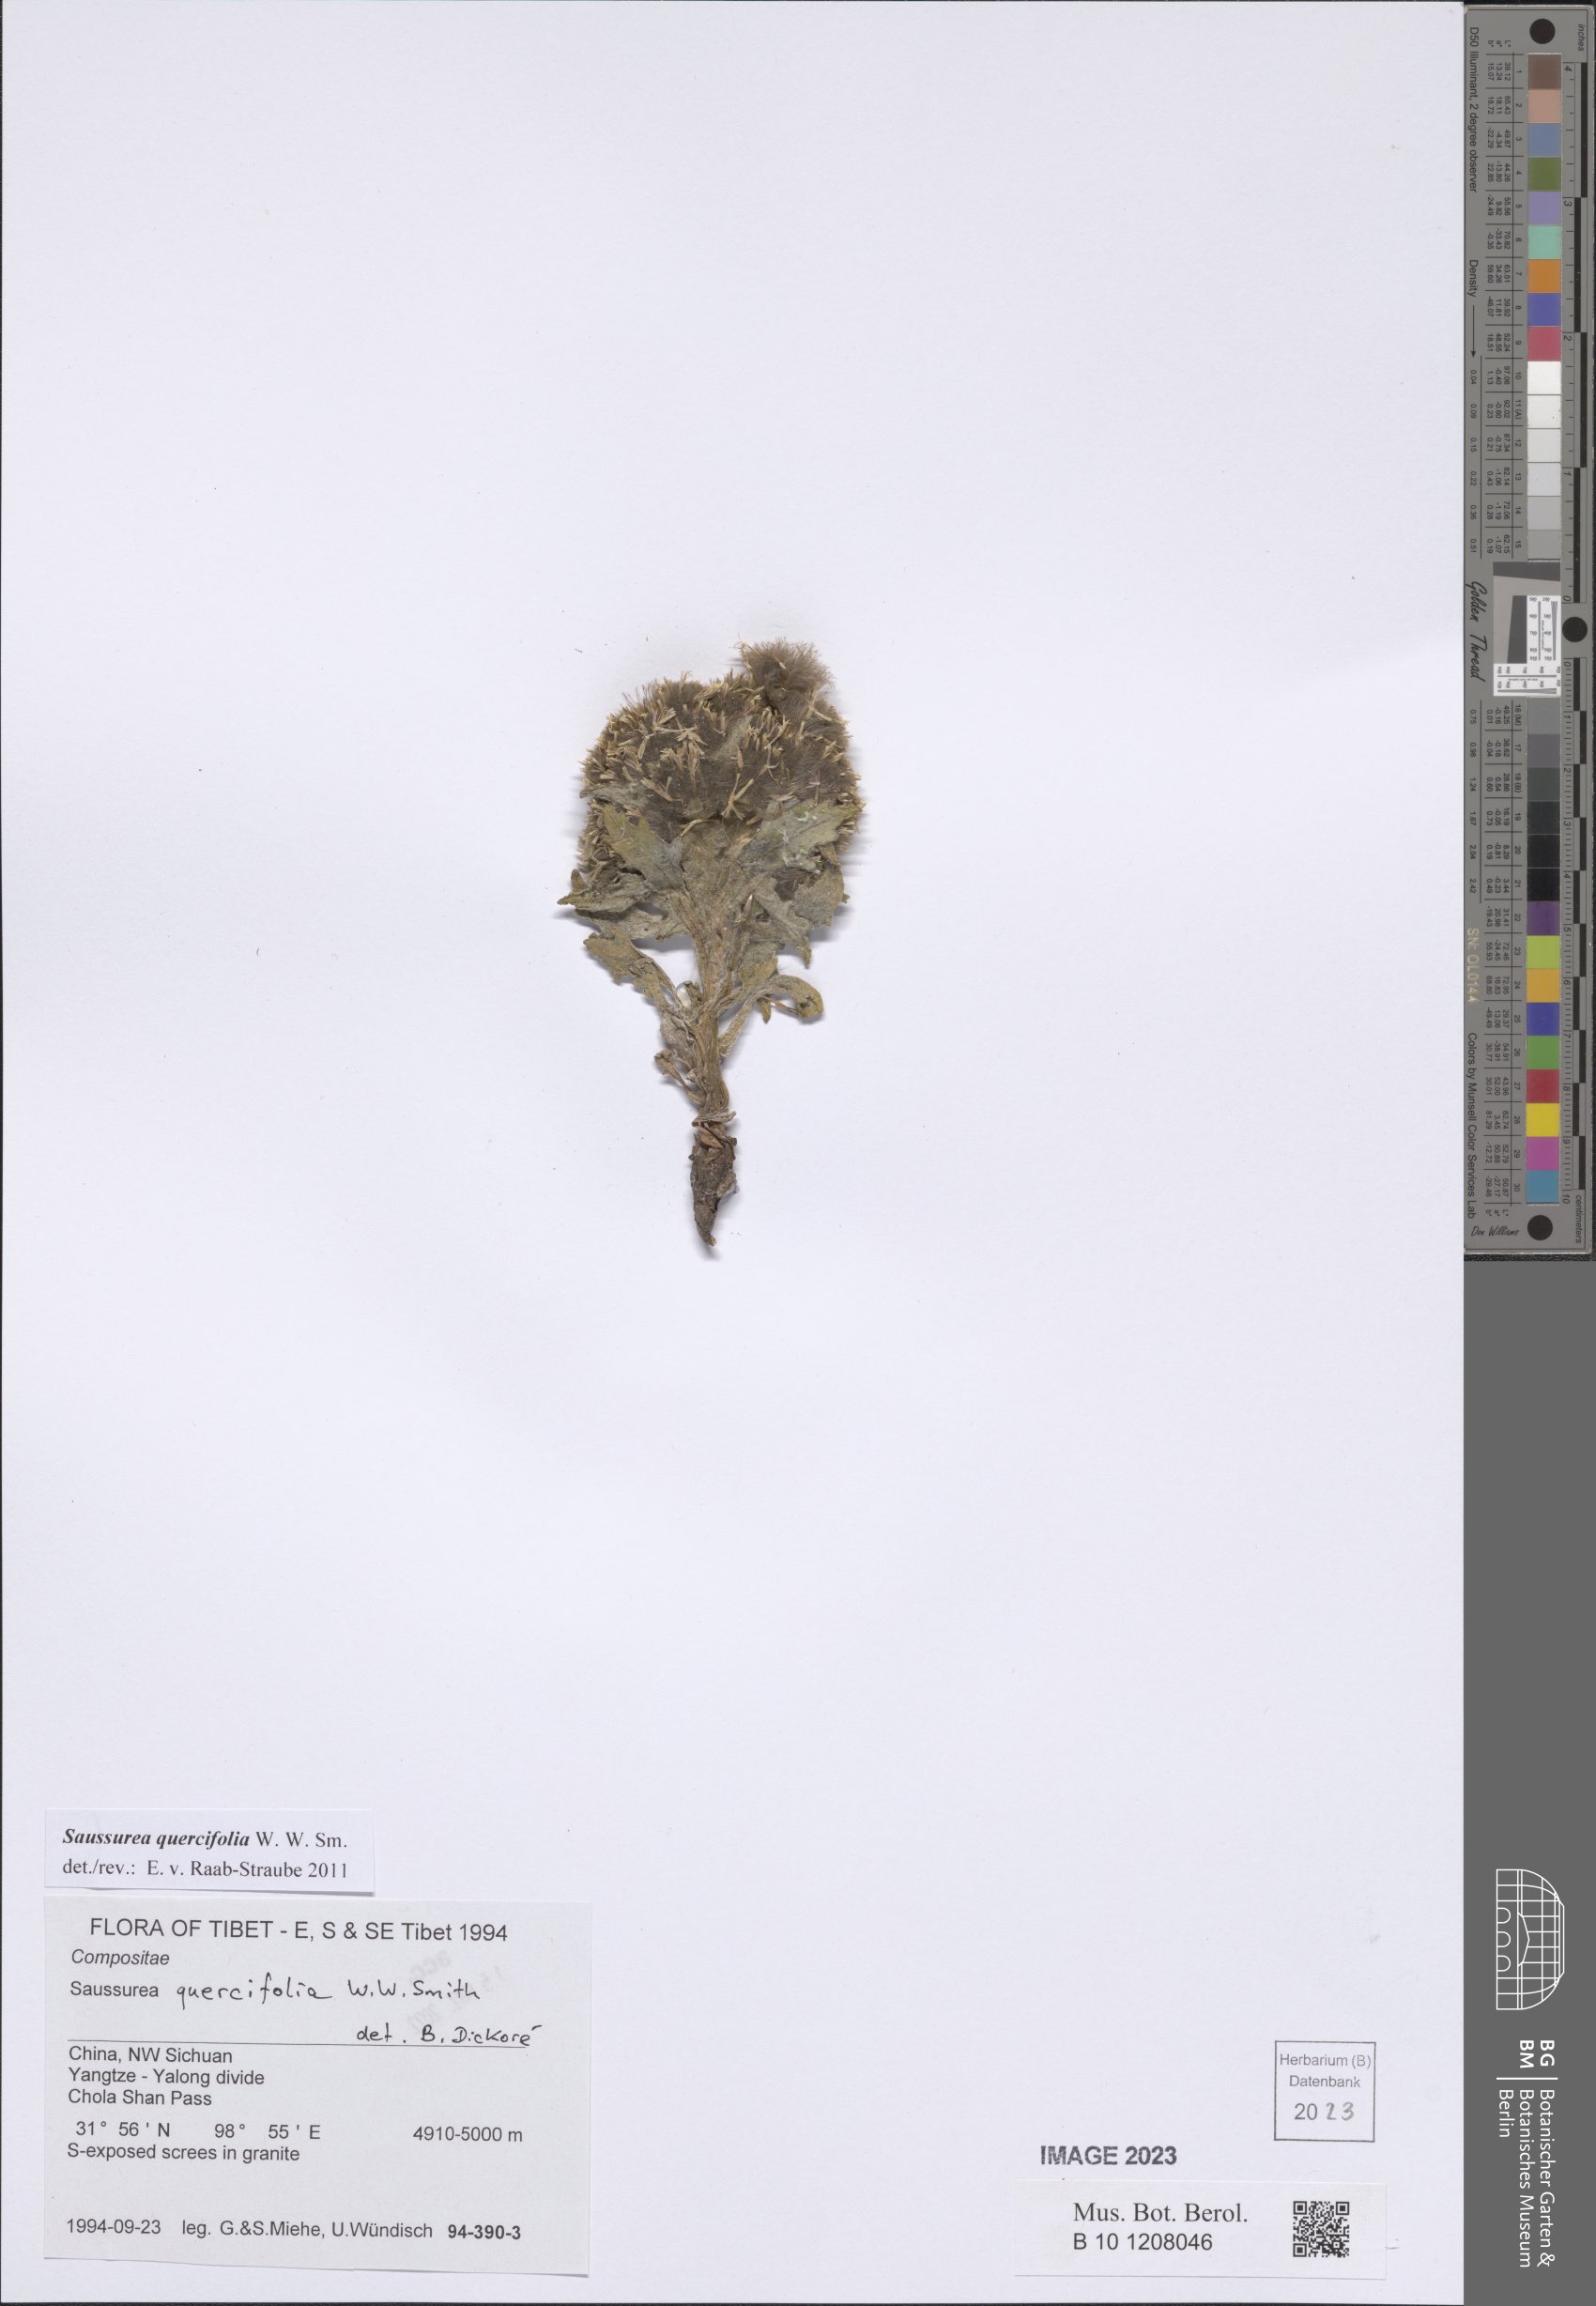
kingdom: Plantae
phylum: Tracheophyta
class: Magnoliopsida
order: Asterales
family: Asteraceae
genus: Saussurea
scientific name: Saussurea quercifolia
